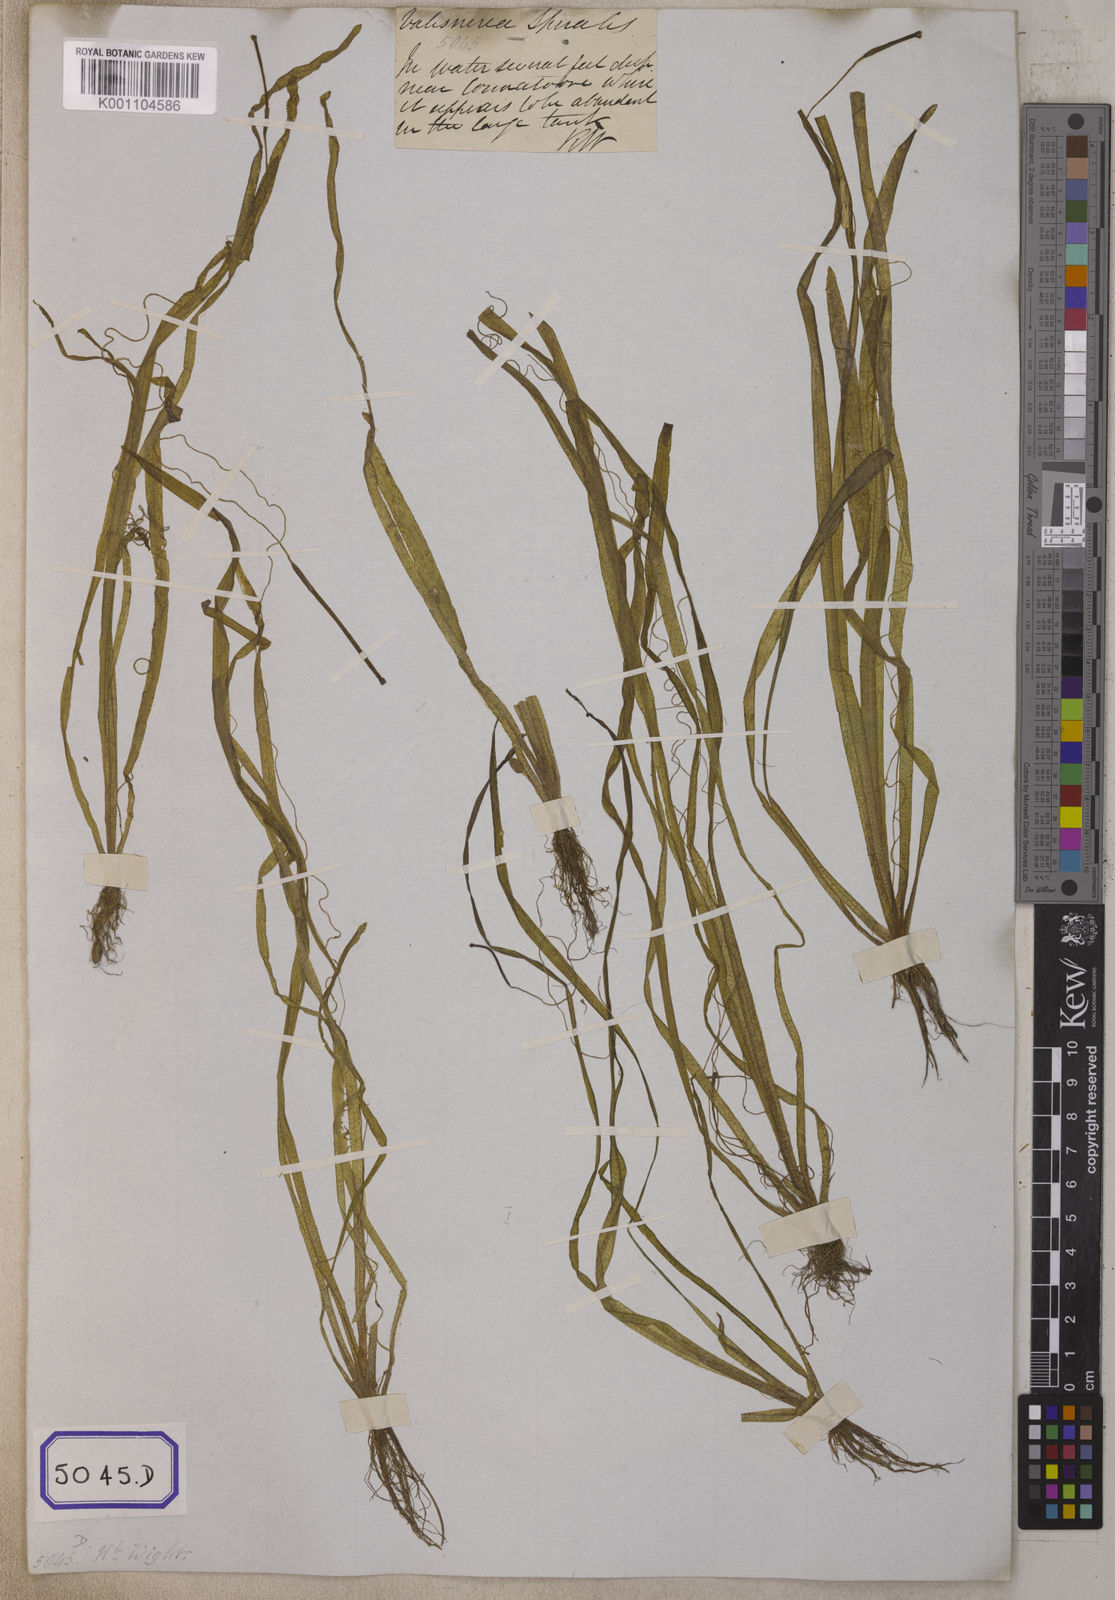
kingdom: Plantae
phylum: Tracheophyta
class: Liliopsida
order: Alismatales
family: Hydrocharitaceae
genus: Vallisneria
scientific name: Vallisneria spiralis
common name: Tapegrass
